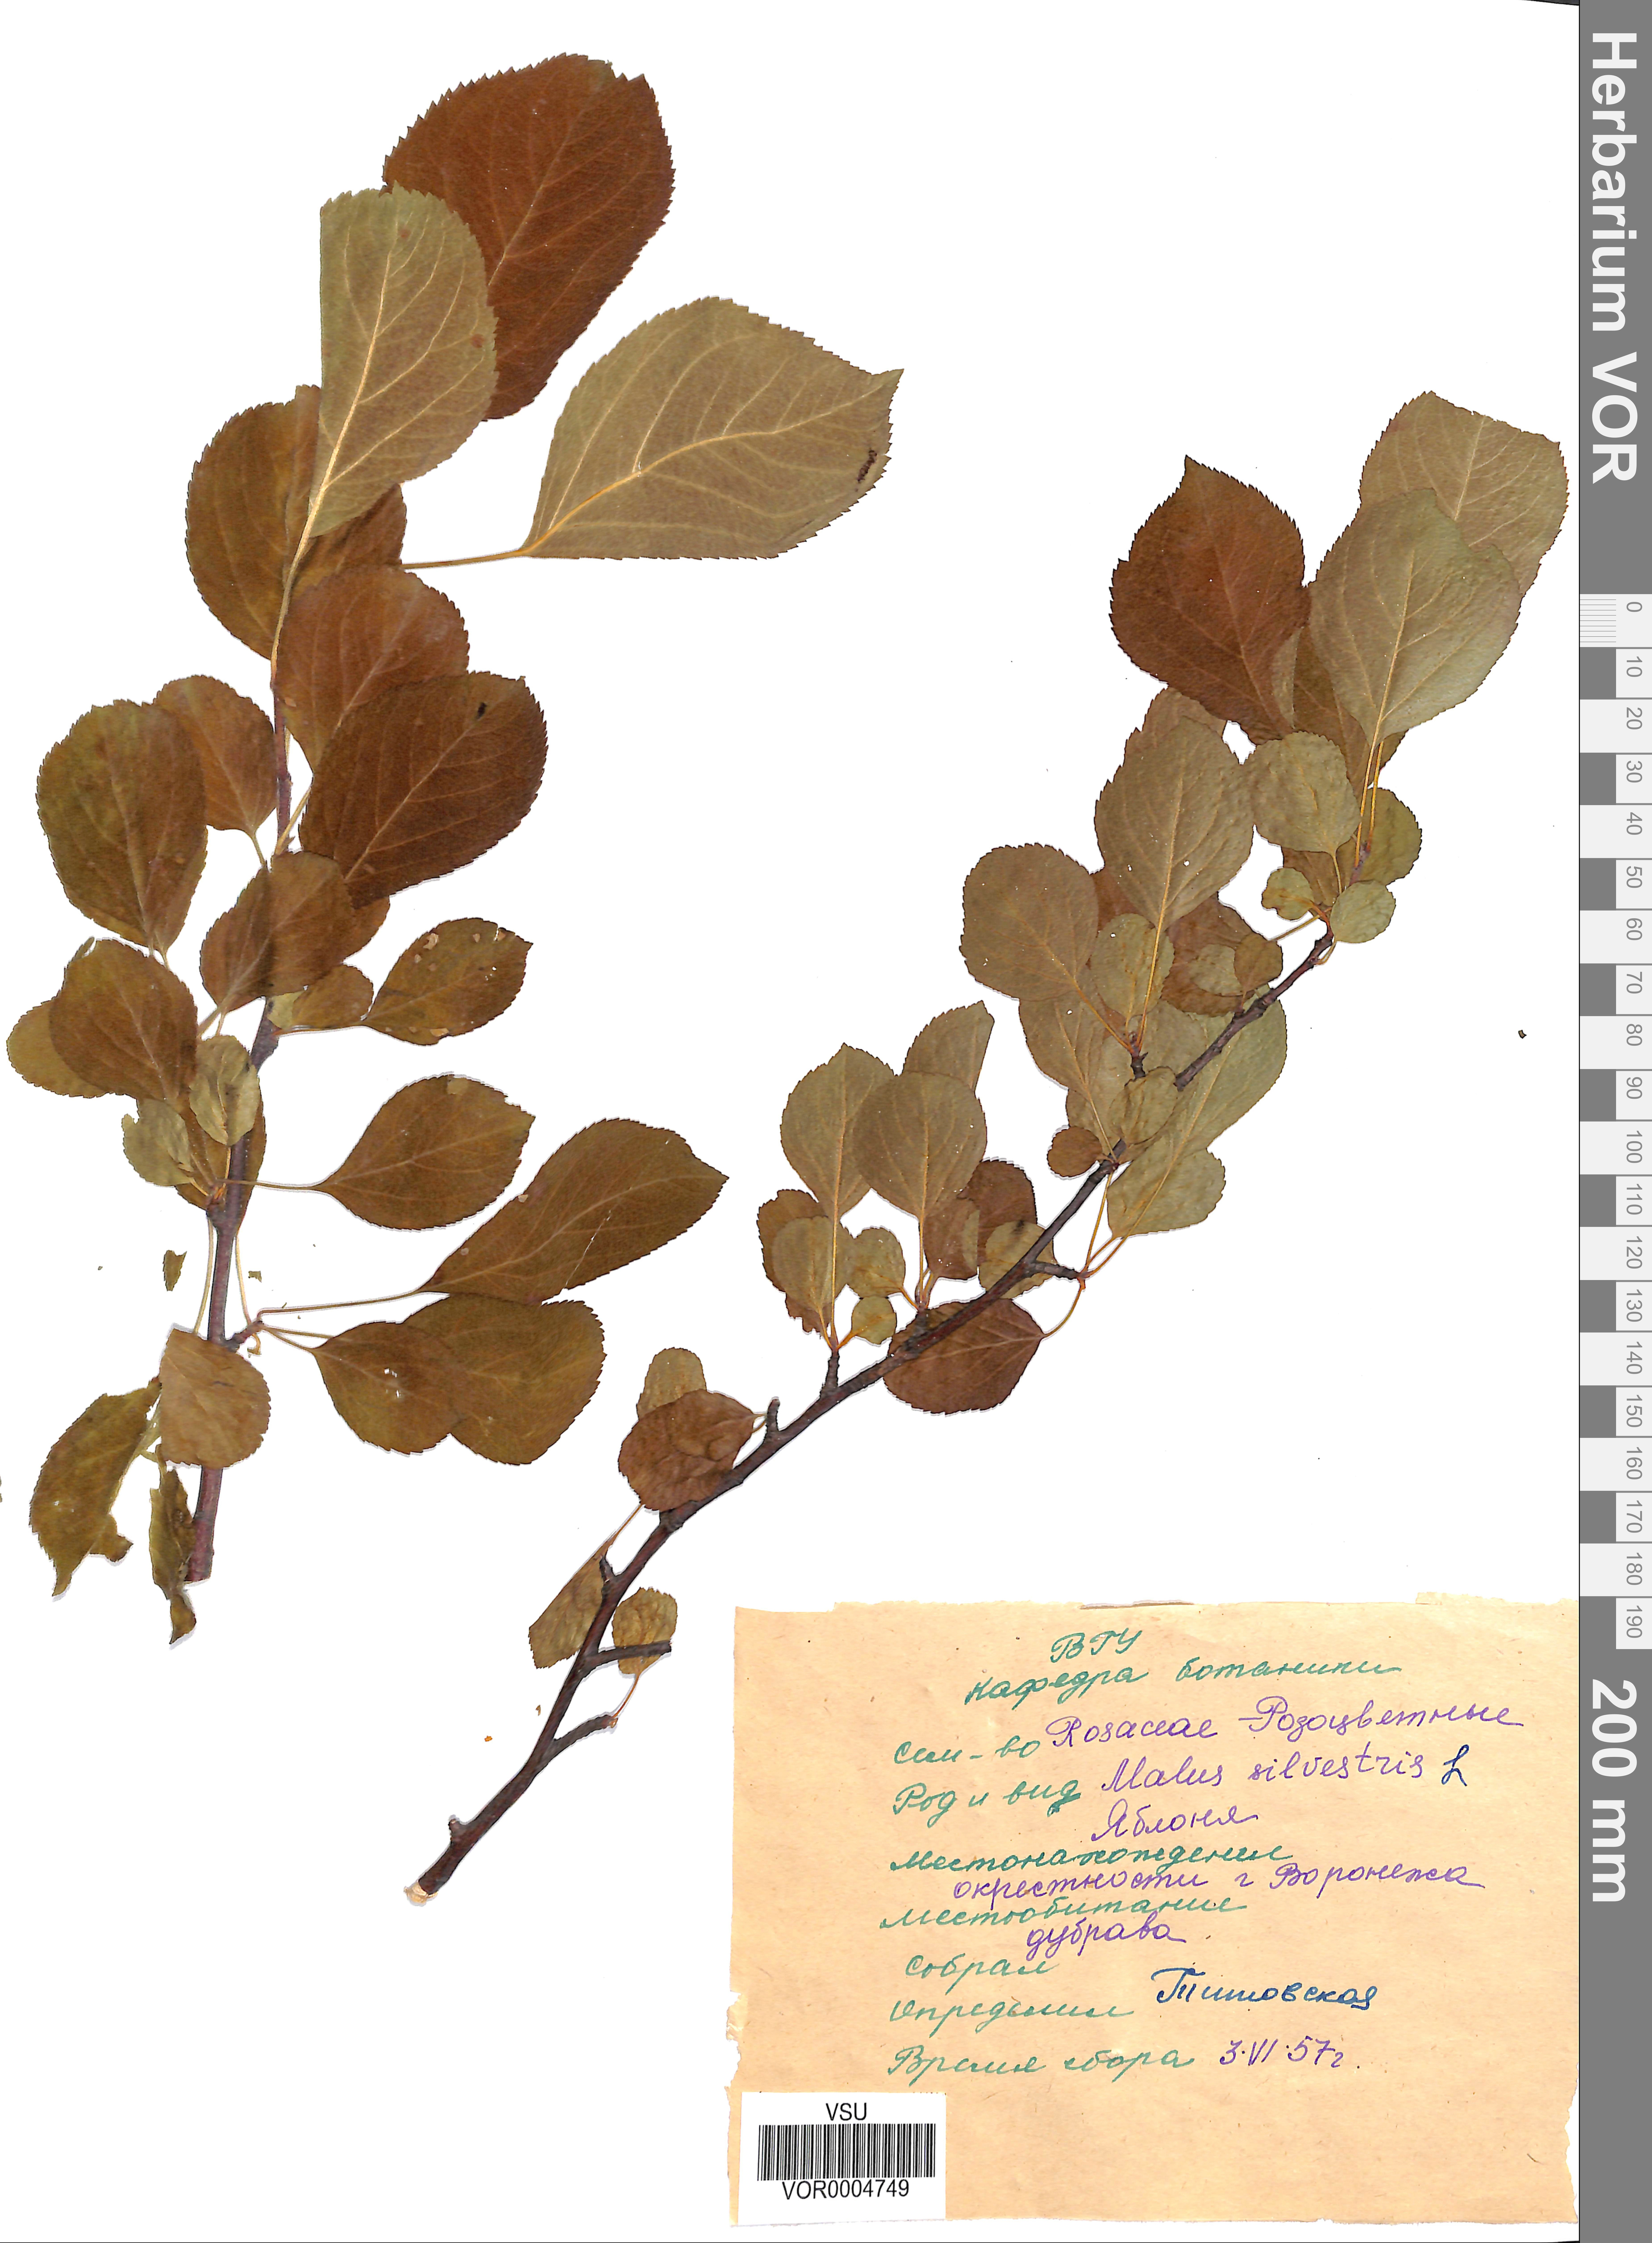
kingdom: Plantae
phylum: Tracheophyta
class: Magnoliopsida
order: Rosales
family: Rosaceae
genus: Malus
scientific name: Malus domestica
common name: Apple
